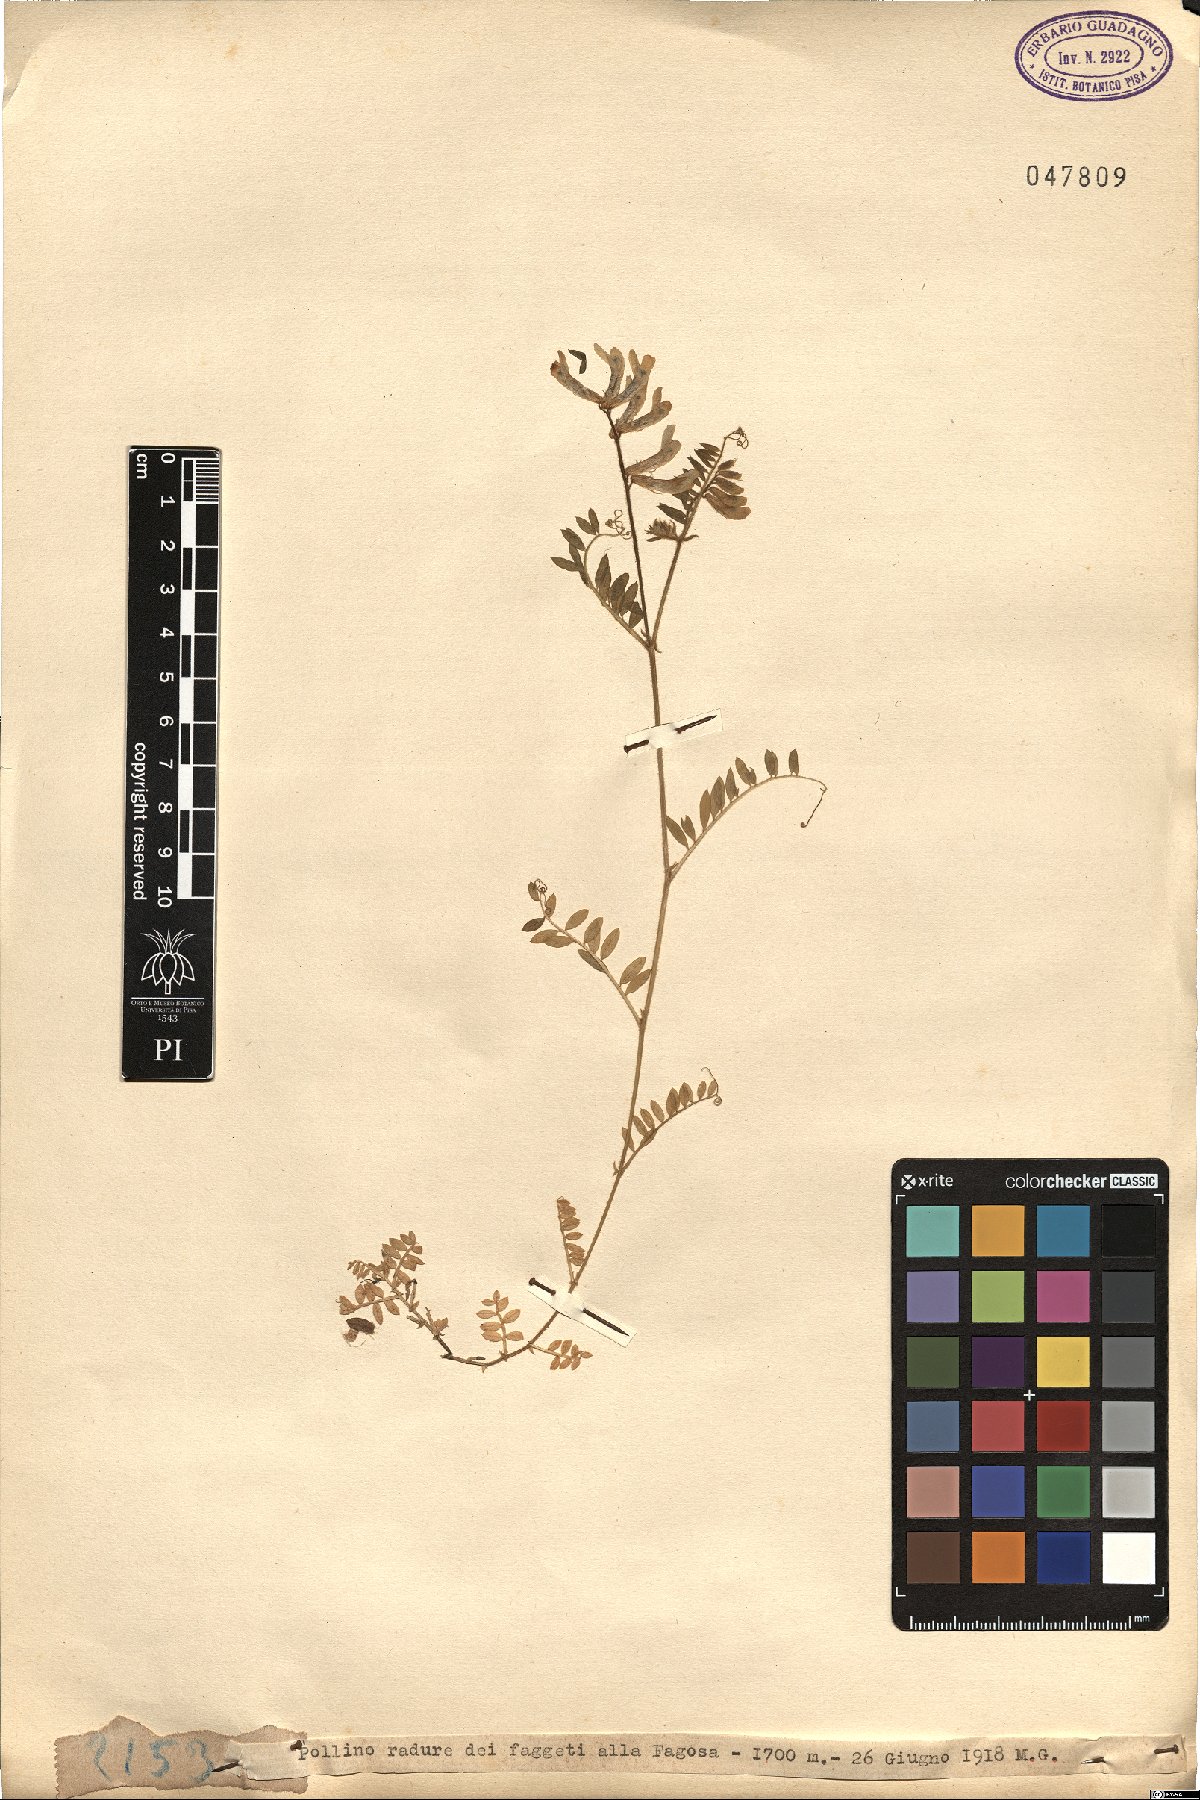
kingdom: Plantae
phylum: Tracheophyta
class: Magnoliopsida
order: Fabales
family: Fabaceae
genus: Vicia
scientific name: Vicia
